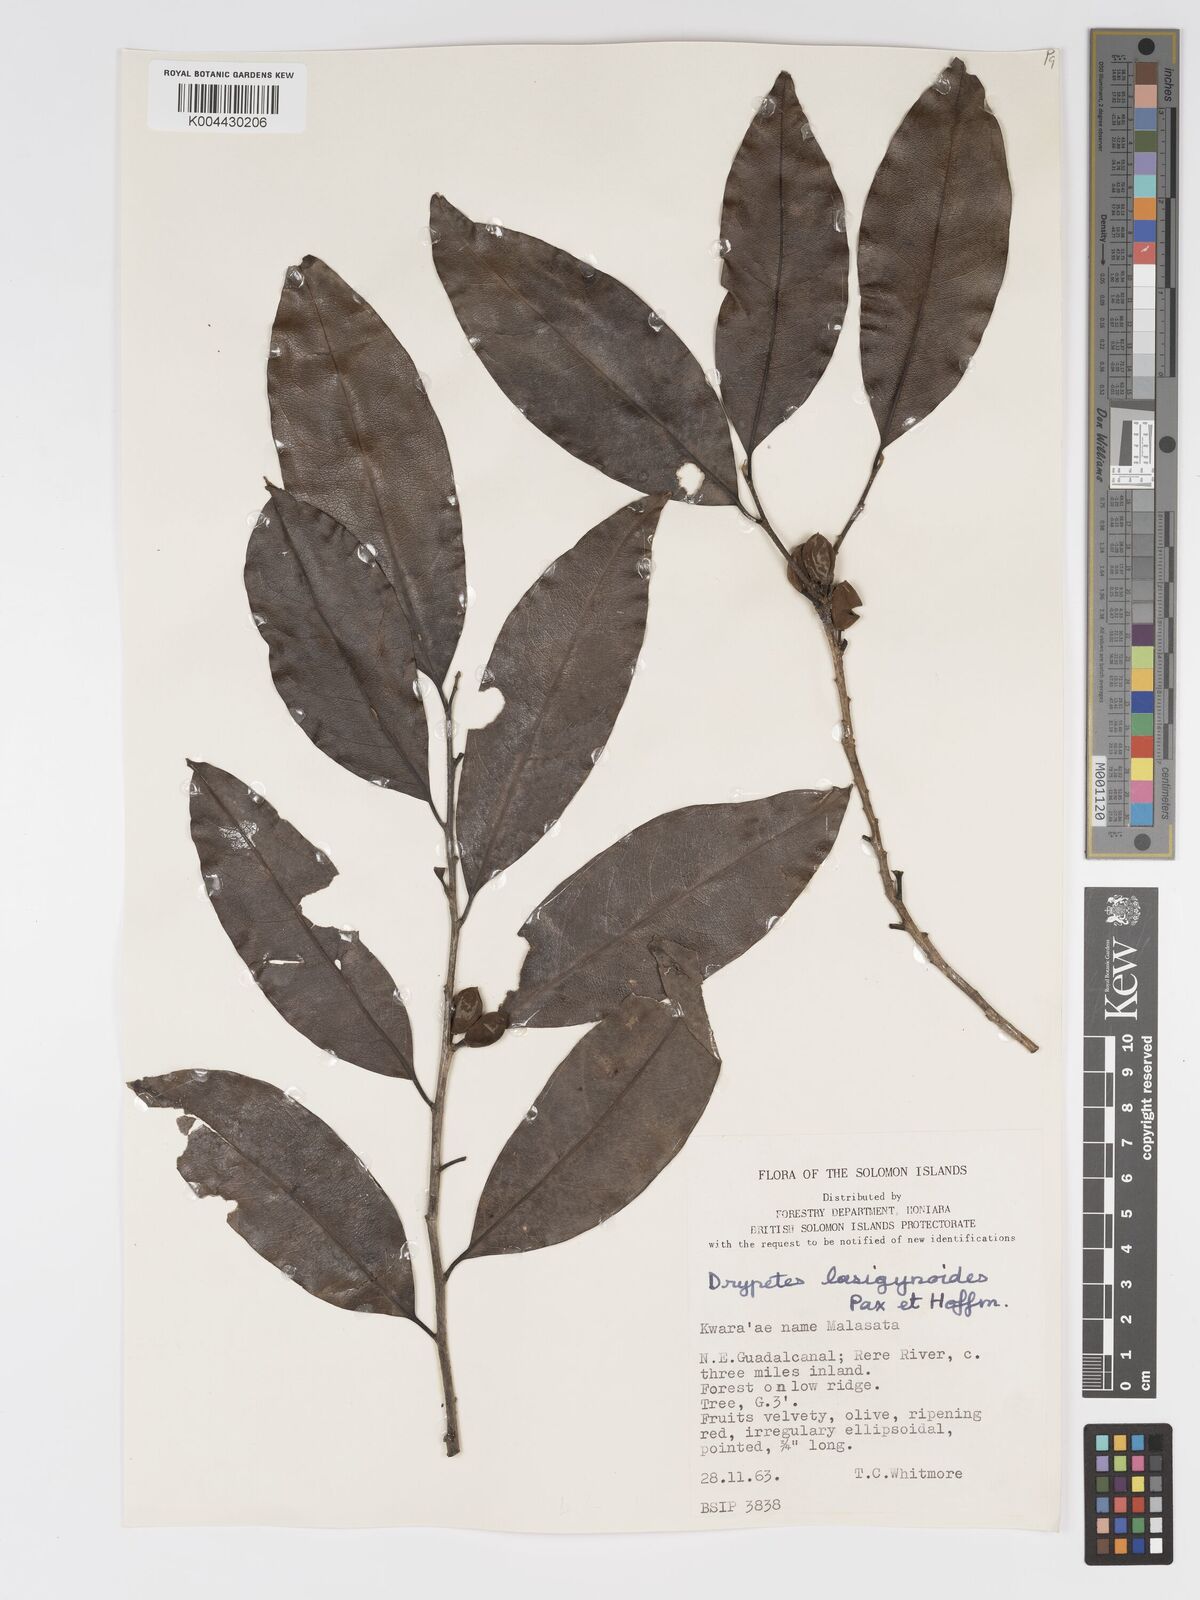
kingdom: Plantae
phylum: Tracheophyta
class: Magnoliopsida
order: Malpighiales
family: Putranjivaceae
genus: Drypetes
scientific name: Drypetes lasiogynoides
